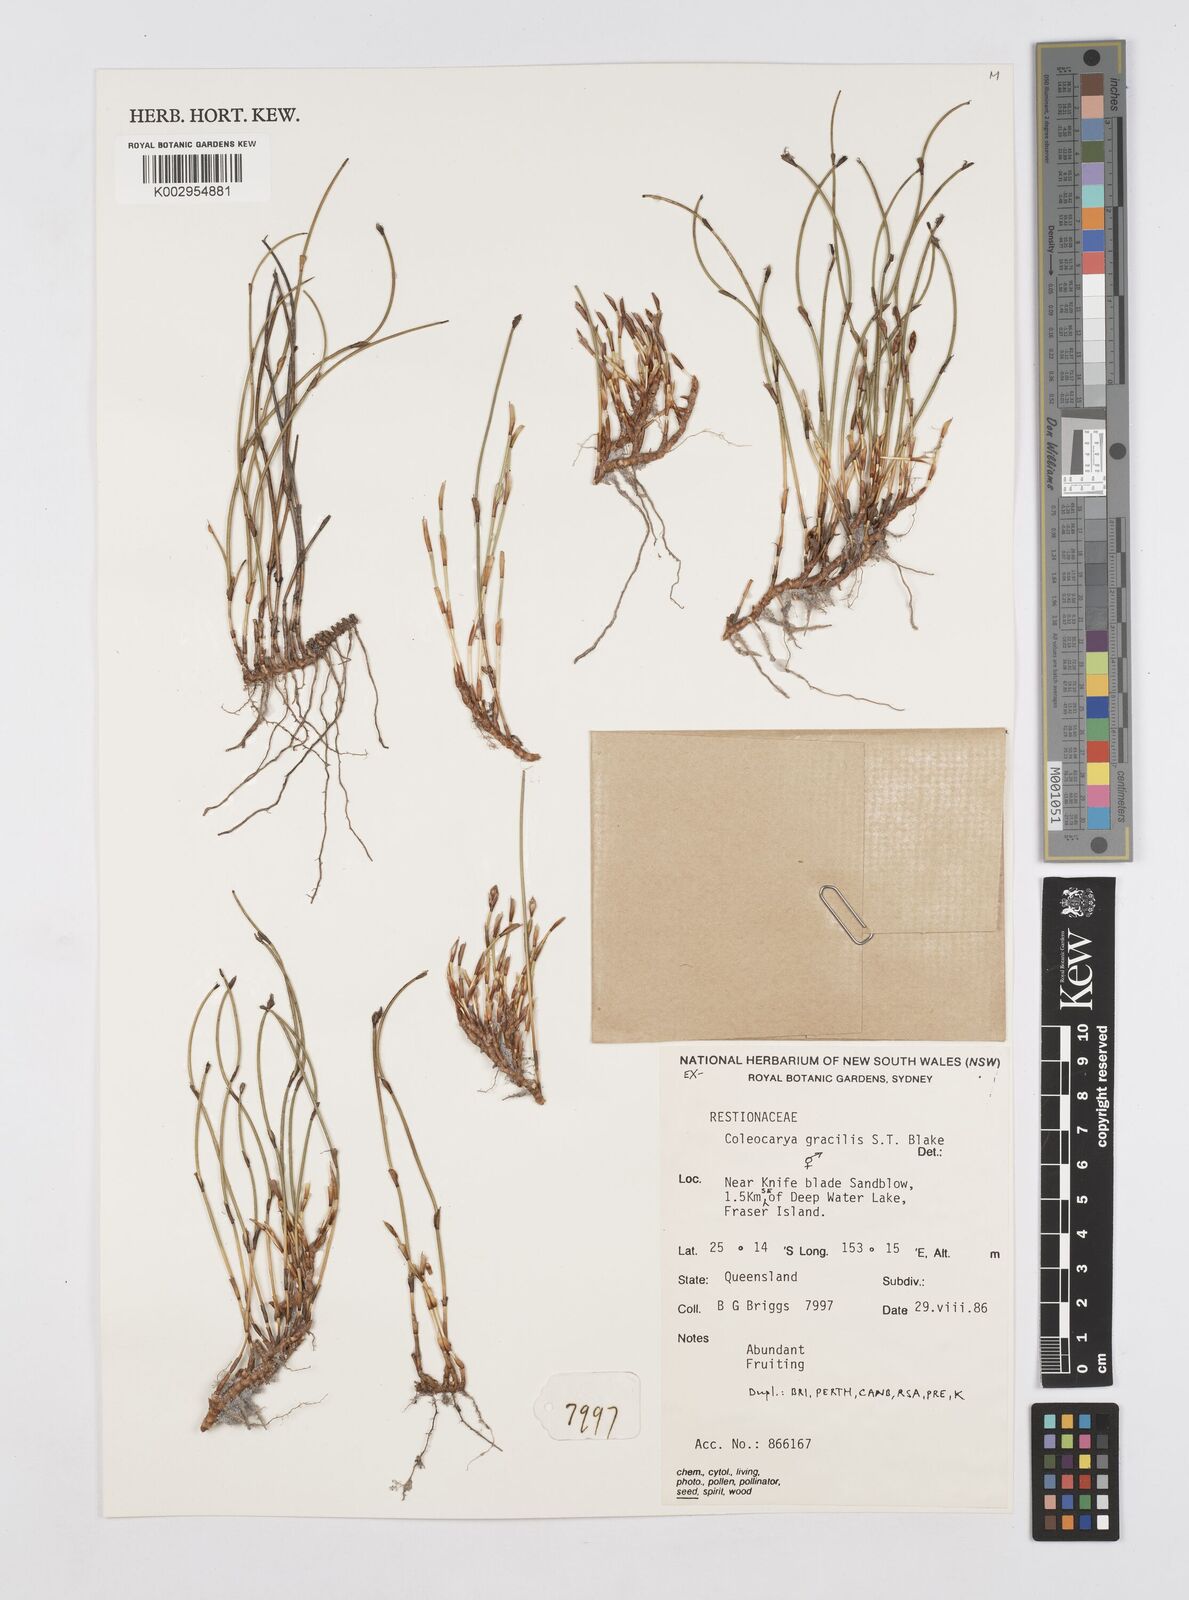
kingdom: Plantae
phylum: Tracheophyta
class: Liliopsida
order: Poales
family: Restionaceae
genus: Coleocarya
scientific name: Coleocarya gracilis
